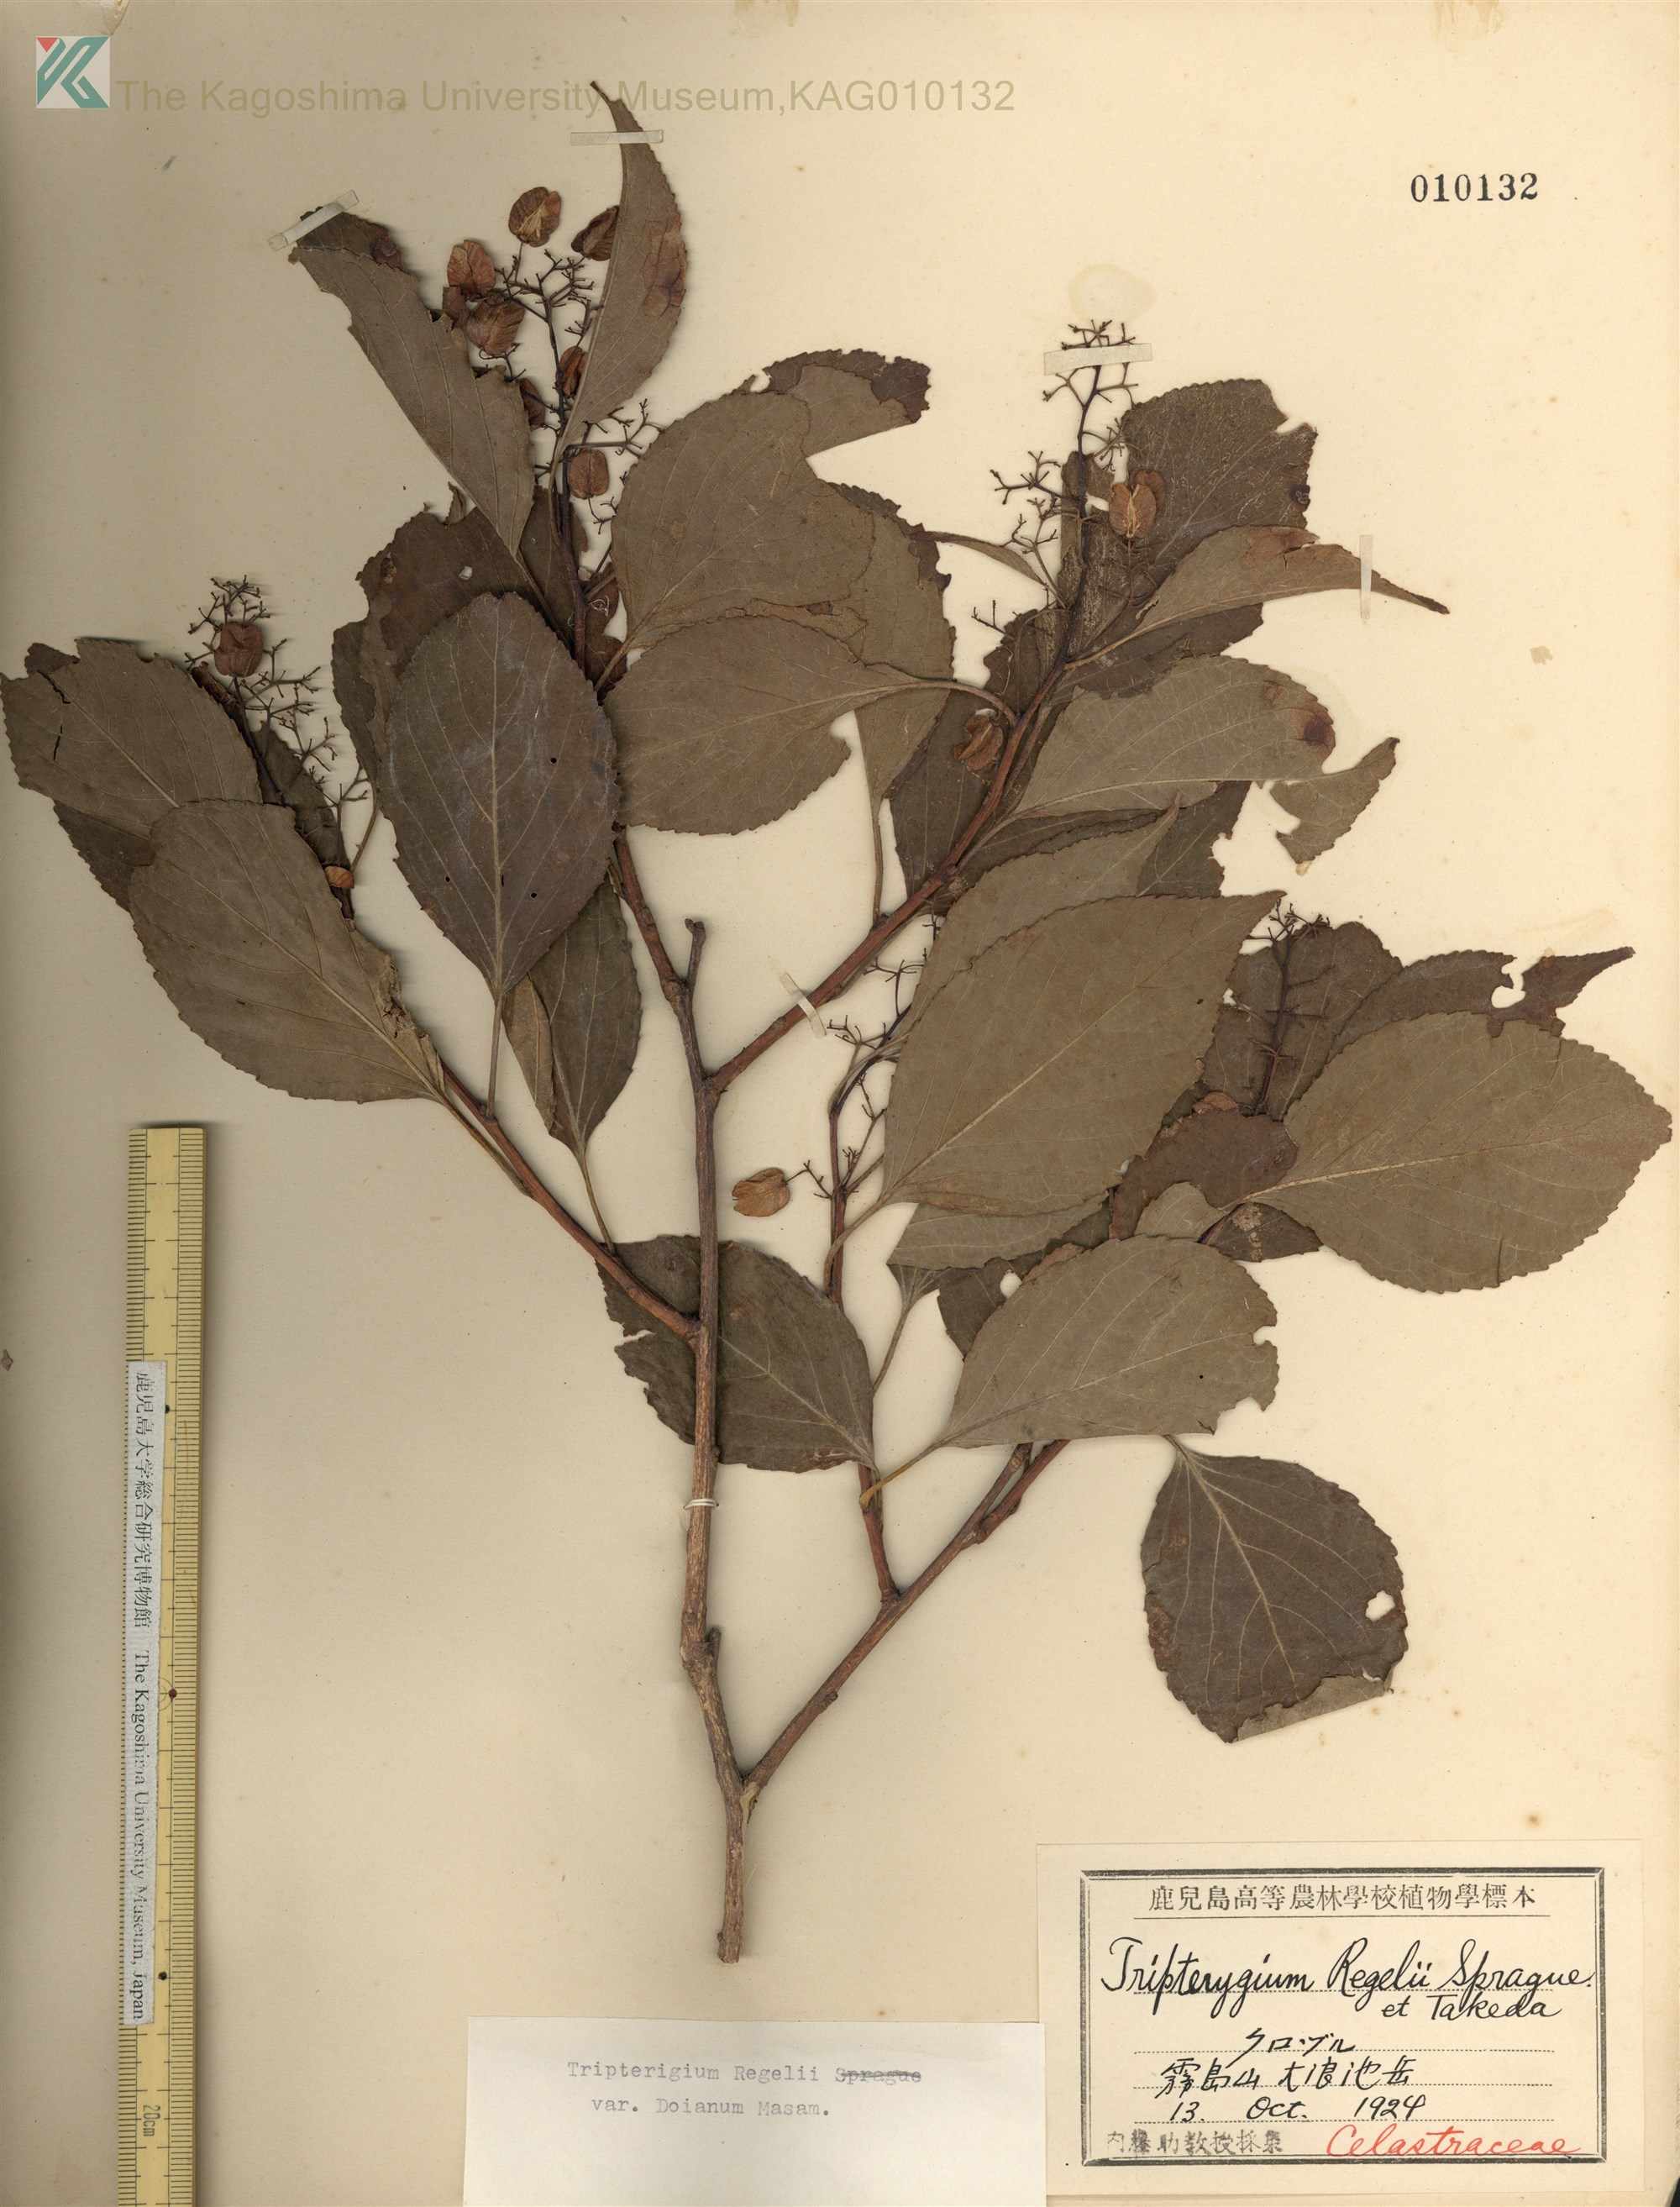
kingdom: Plantae
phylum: Tracheophyta
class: Magnoliopsida
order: Celastrales
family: Celastraceae
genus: Tripterygium
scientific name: Tripterygium doianum
